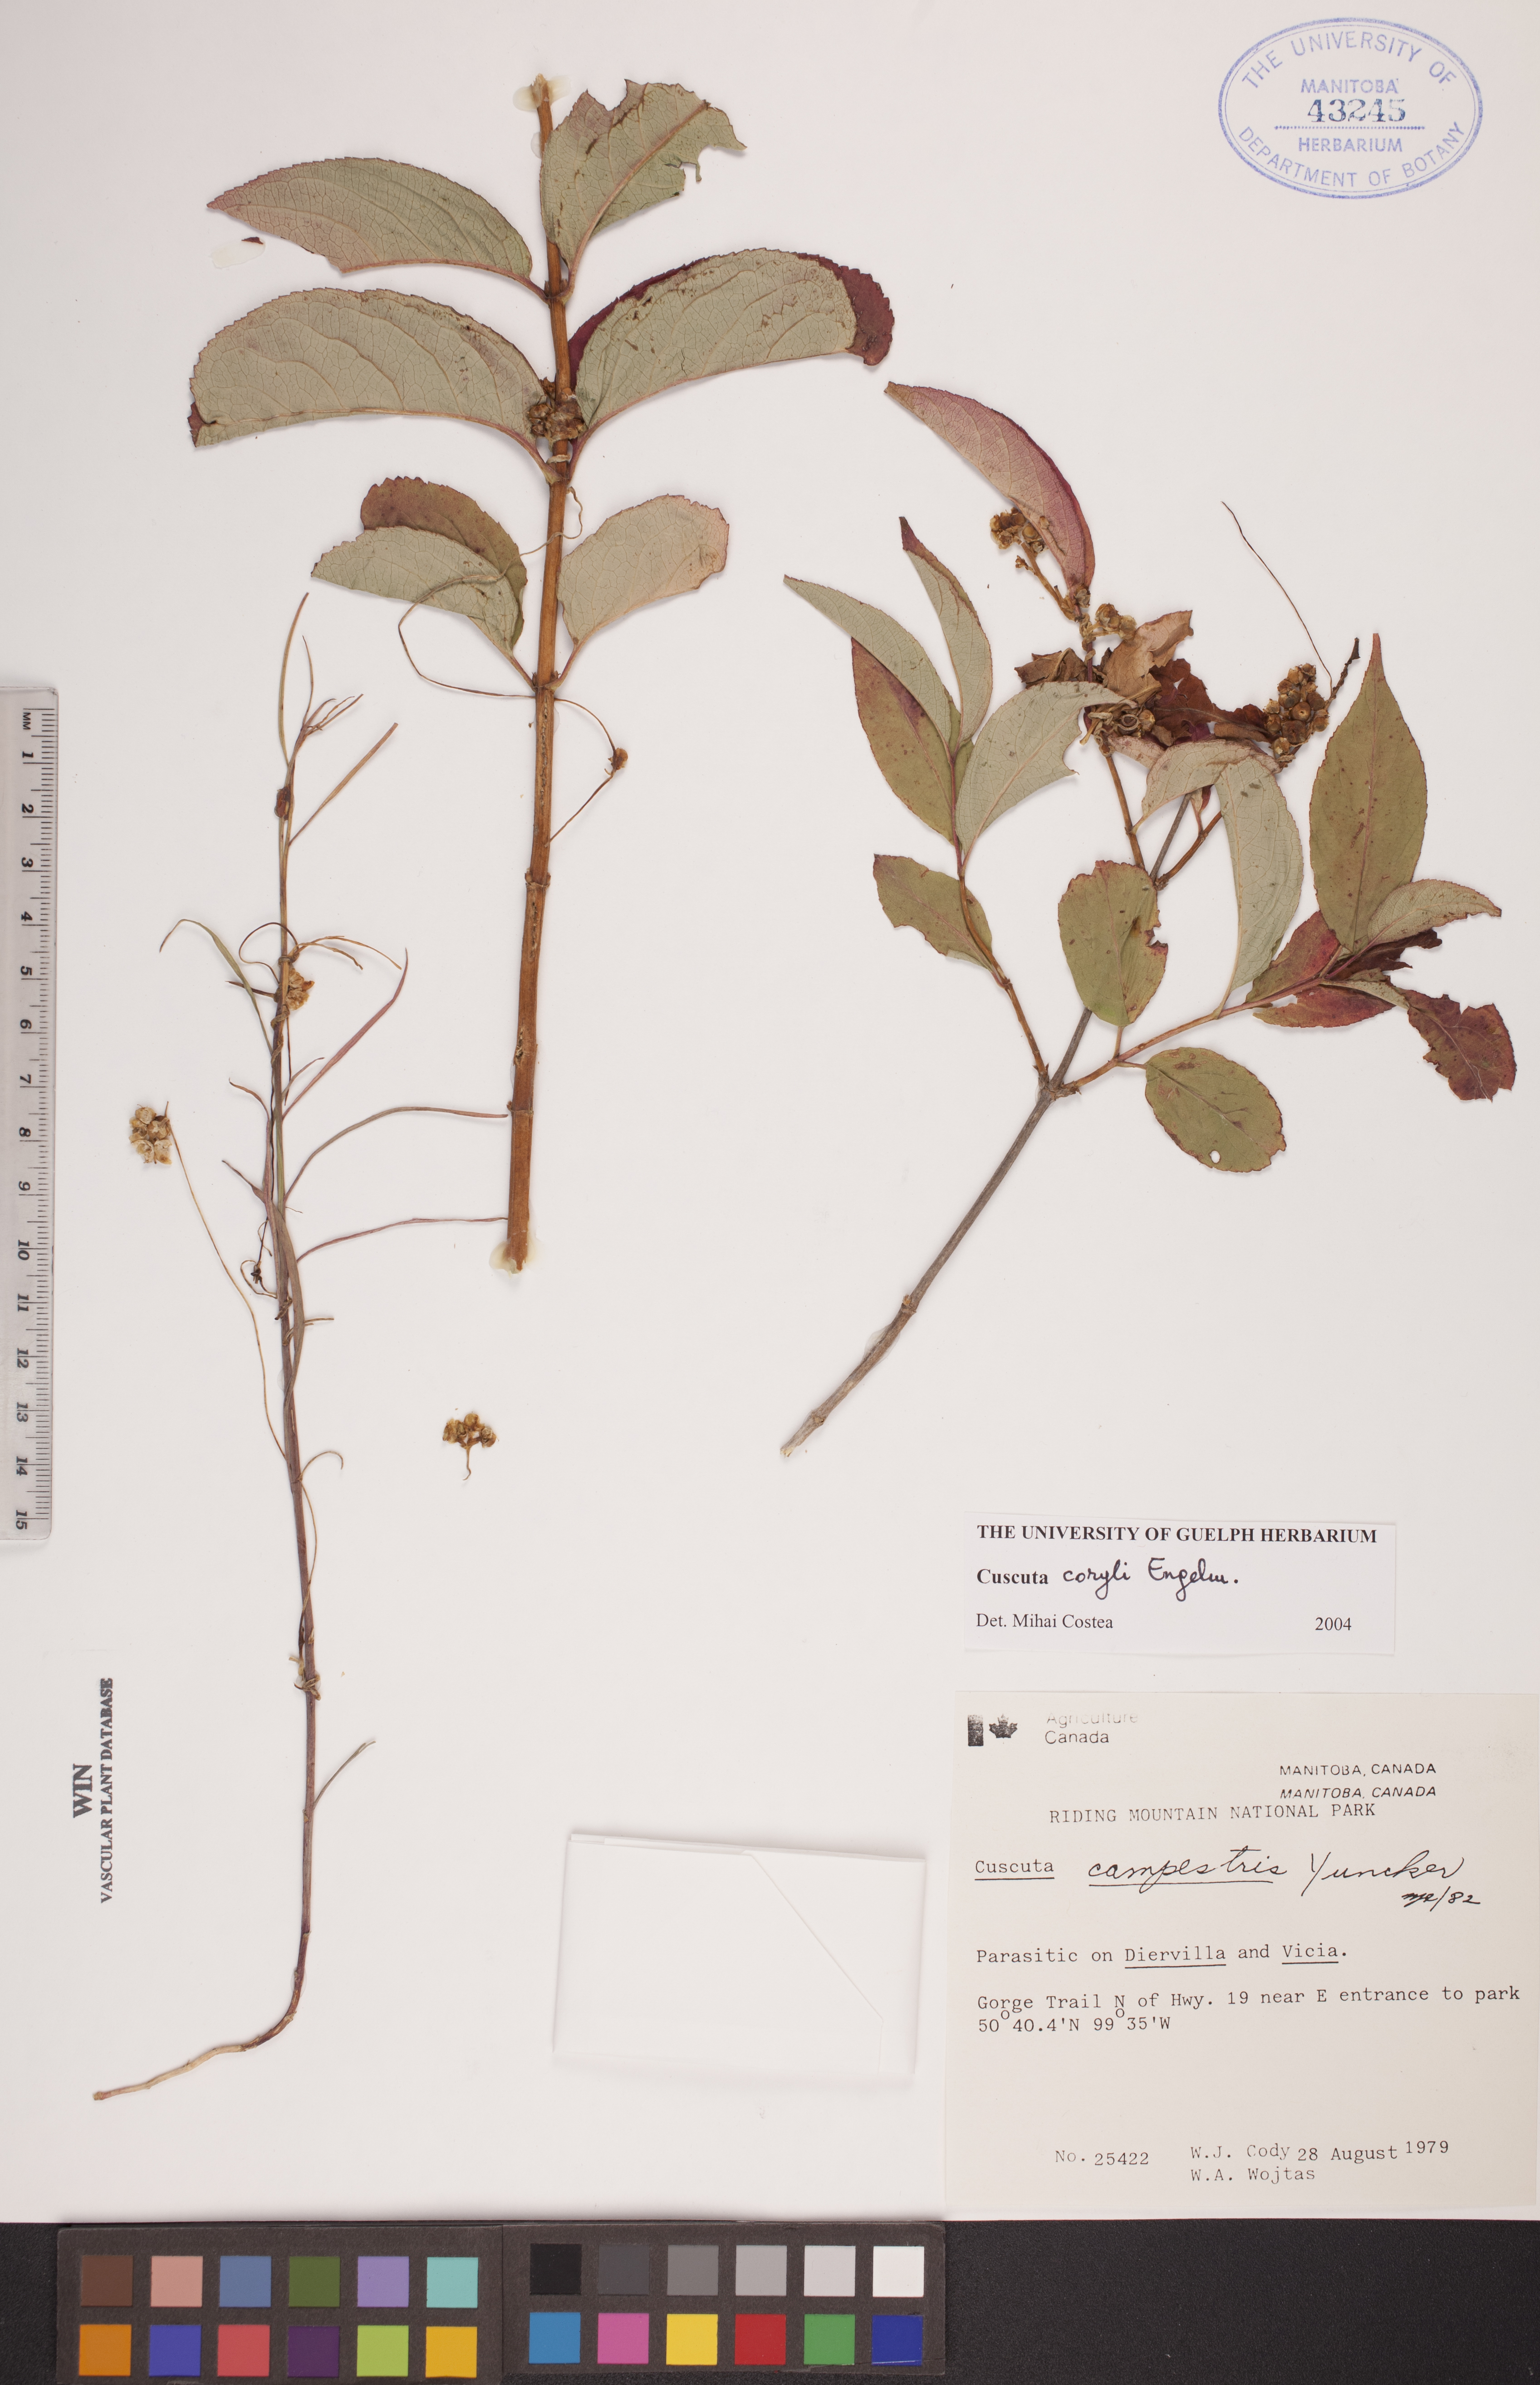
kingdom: Plantae
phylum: Tracheophyta
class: Magnoliopsida
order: Solanales
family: Convolvulaceae
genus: Cuscuta
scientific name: Cuscuta coryli
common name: Hazel dodder
